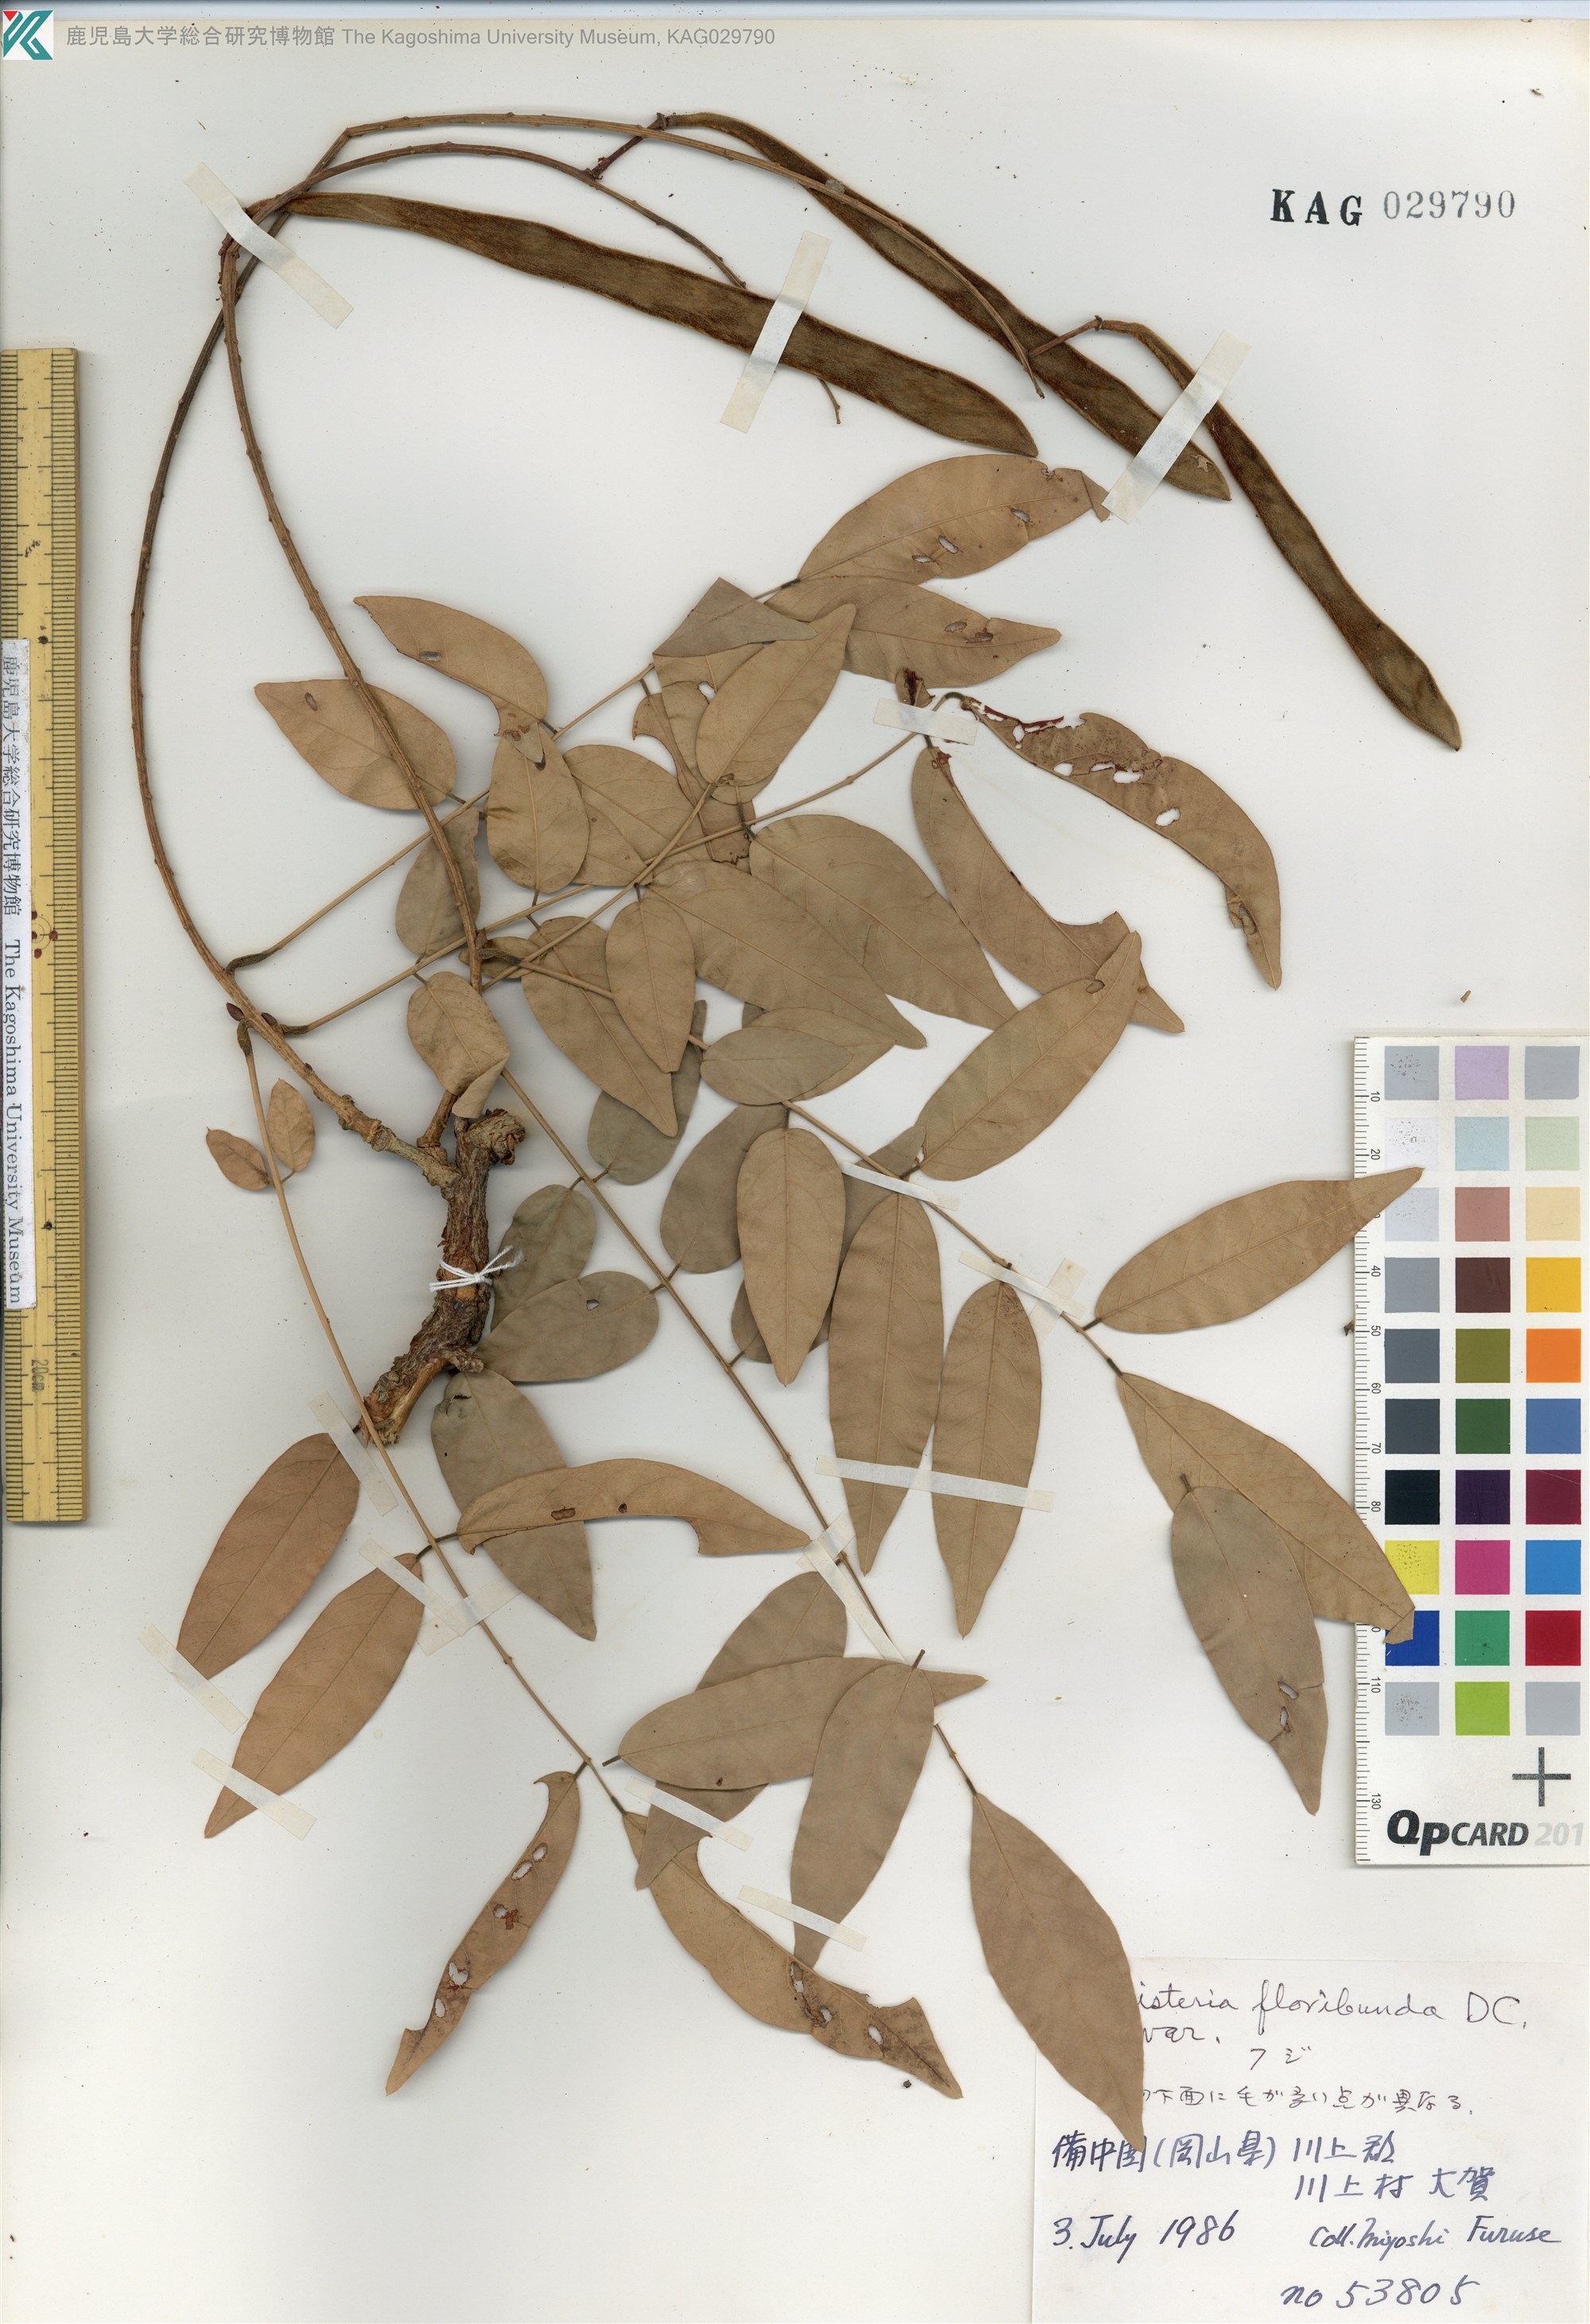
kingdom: Plantae
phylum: Tracheophyta
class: Magnoliopsida
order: Fabales
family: Fabaceae
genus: Wisteria
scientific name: Wisteria brachybotrys
